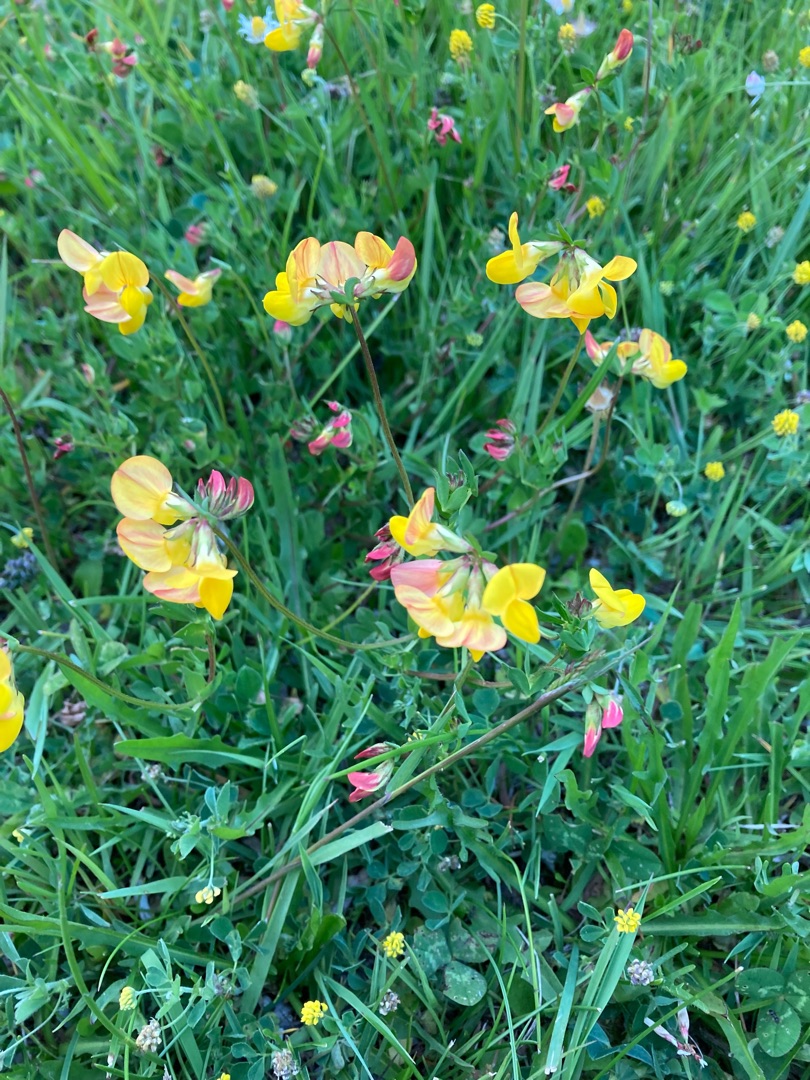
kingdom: Plantae
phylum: Tracheophyta
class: Magnoliopsida
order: Fabales
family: Fabaceae
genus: Lotus
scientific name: Lotus corniculatus
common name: Almindelig kællingetand
